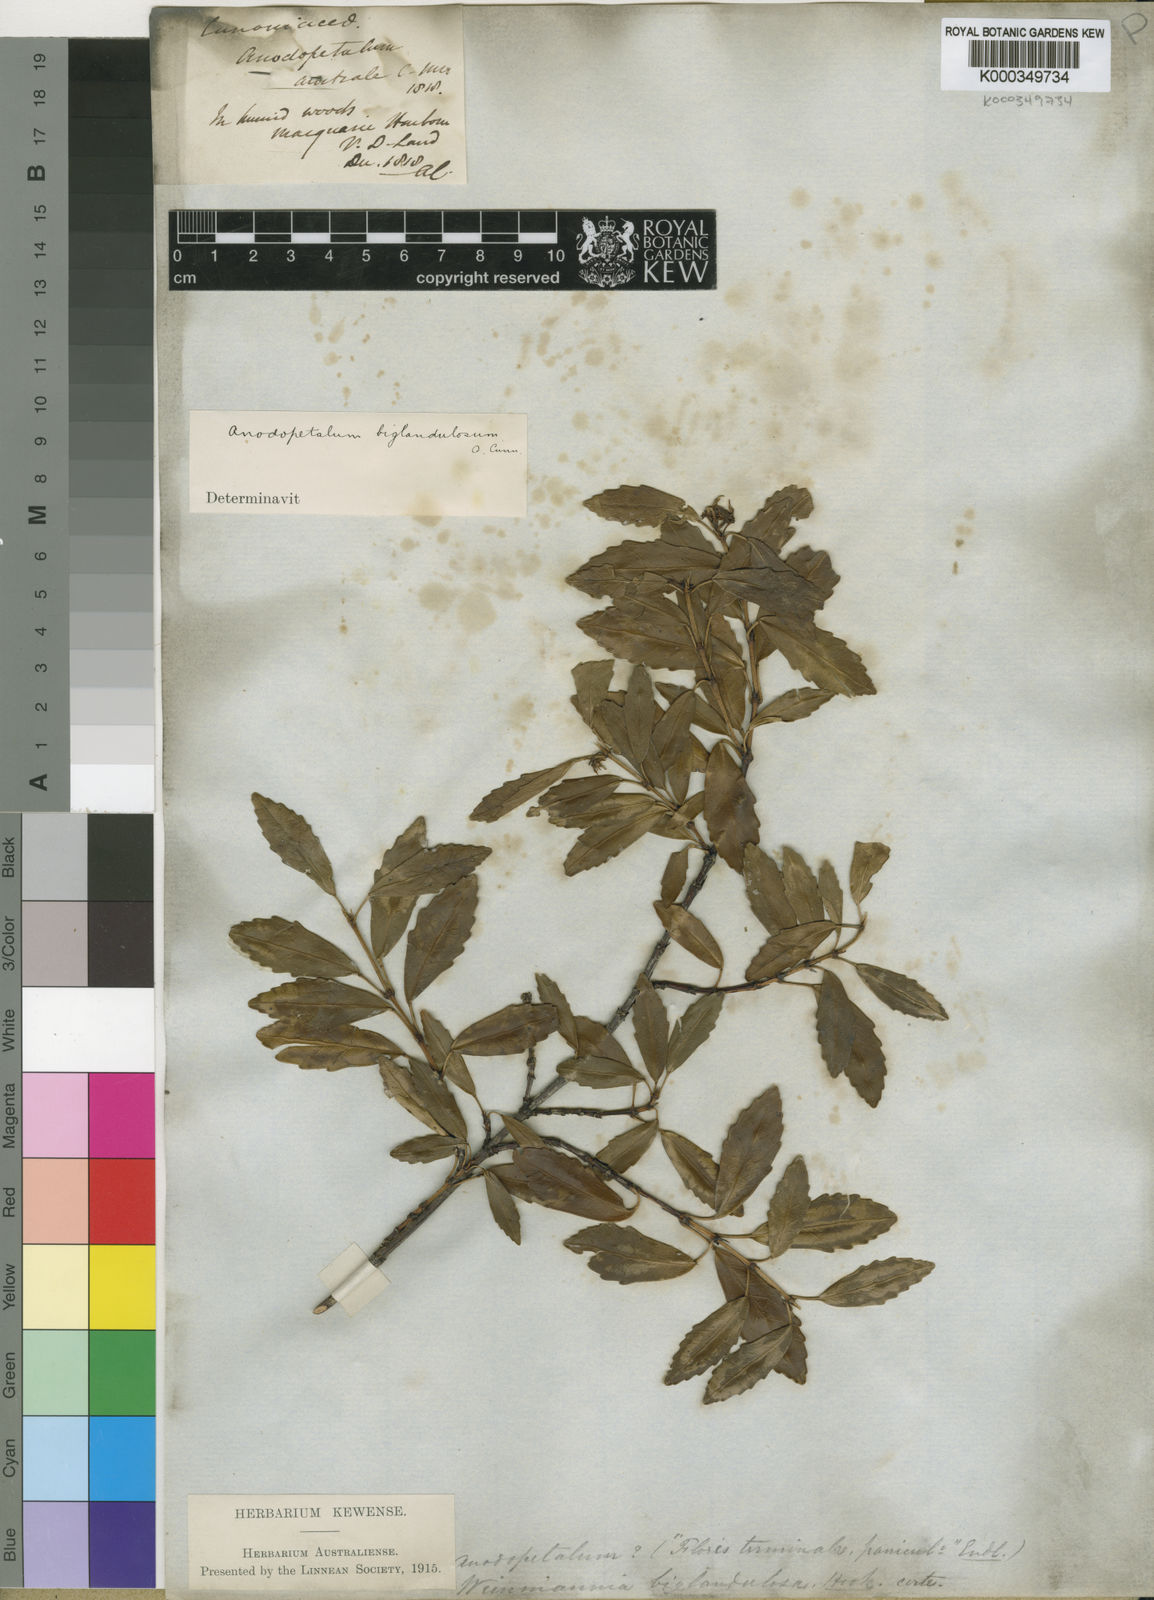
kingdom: Plantae
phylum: Tracheophyta
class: Magnoliopsida
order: Oxalidales
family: Cunoniaceae
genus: Anodopetalum
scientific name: Anodopetalum biglandulosum
